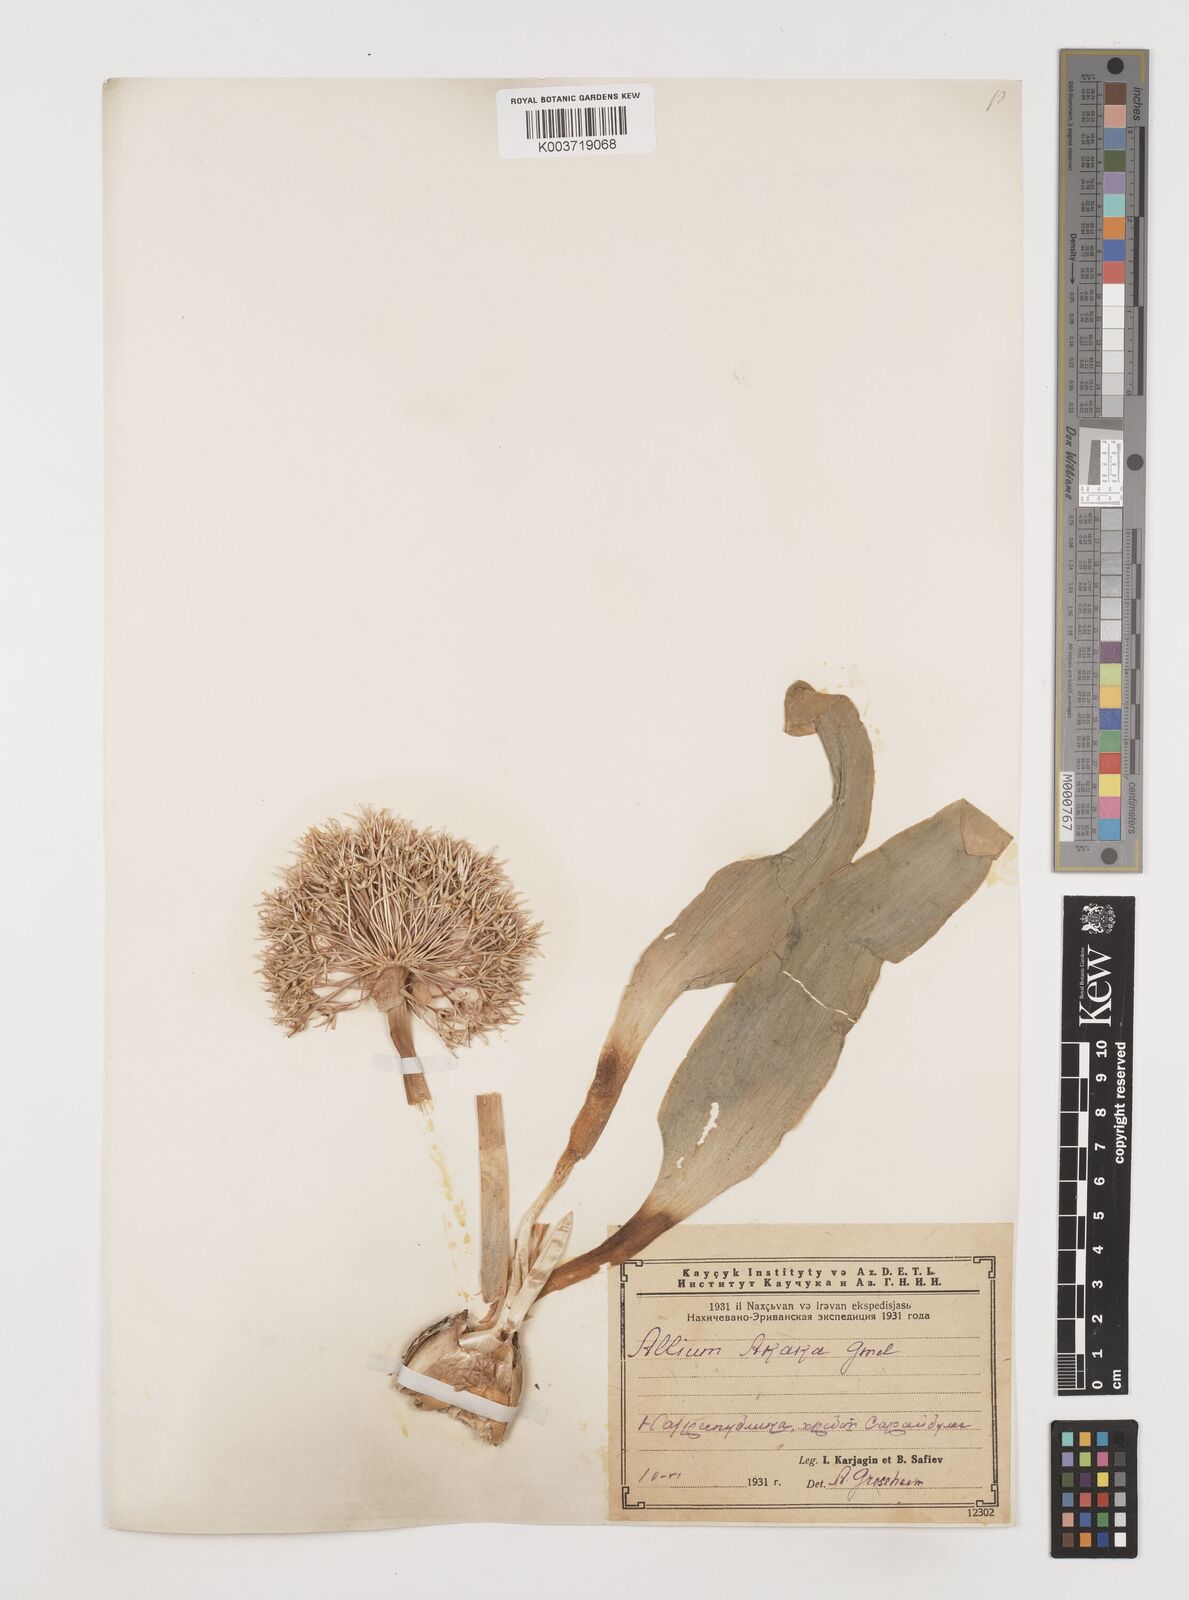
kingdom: Plantae
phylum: Tracheophyta
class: Liliopsida
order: Asparagales
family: Amaryllidaceae
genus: Allium
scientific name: Allium akaka
